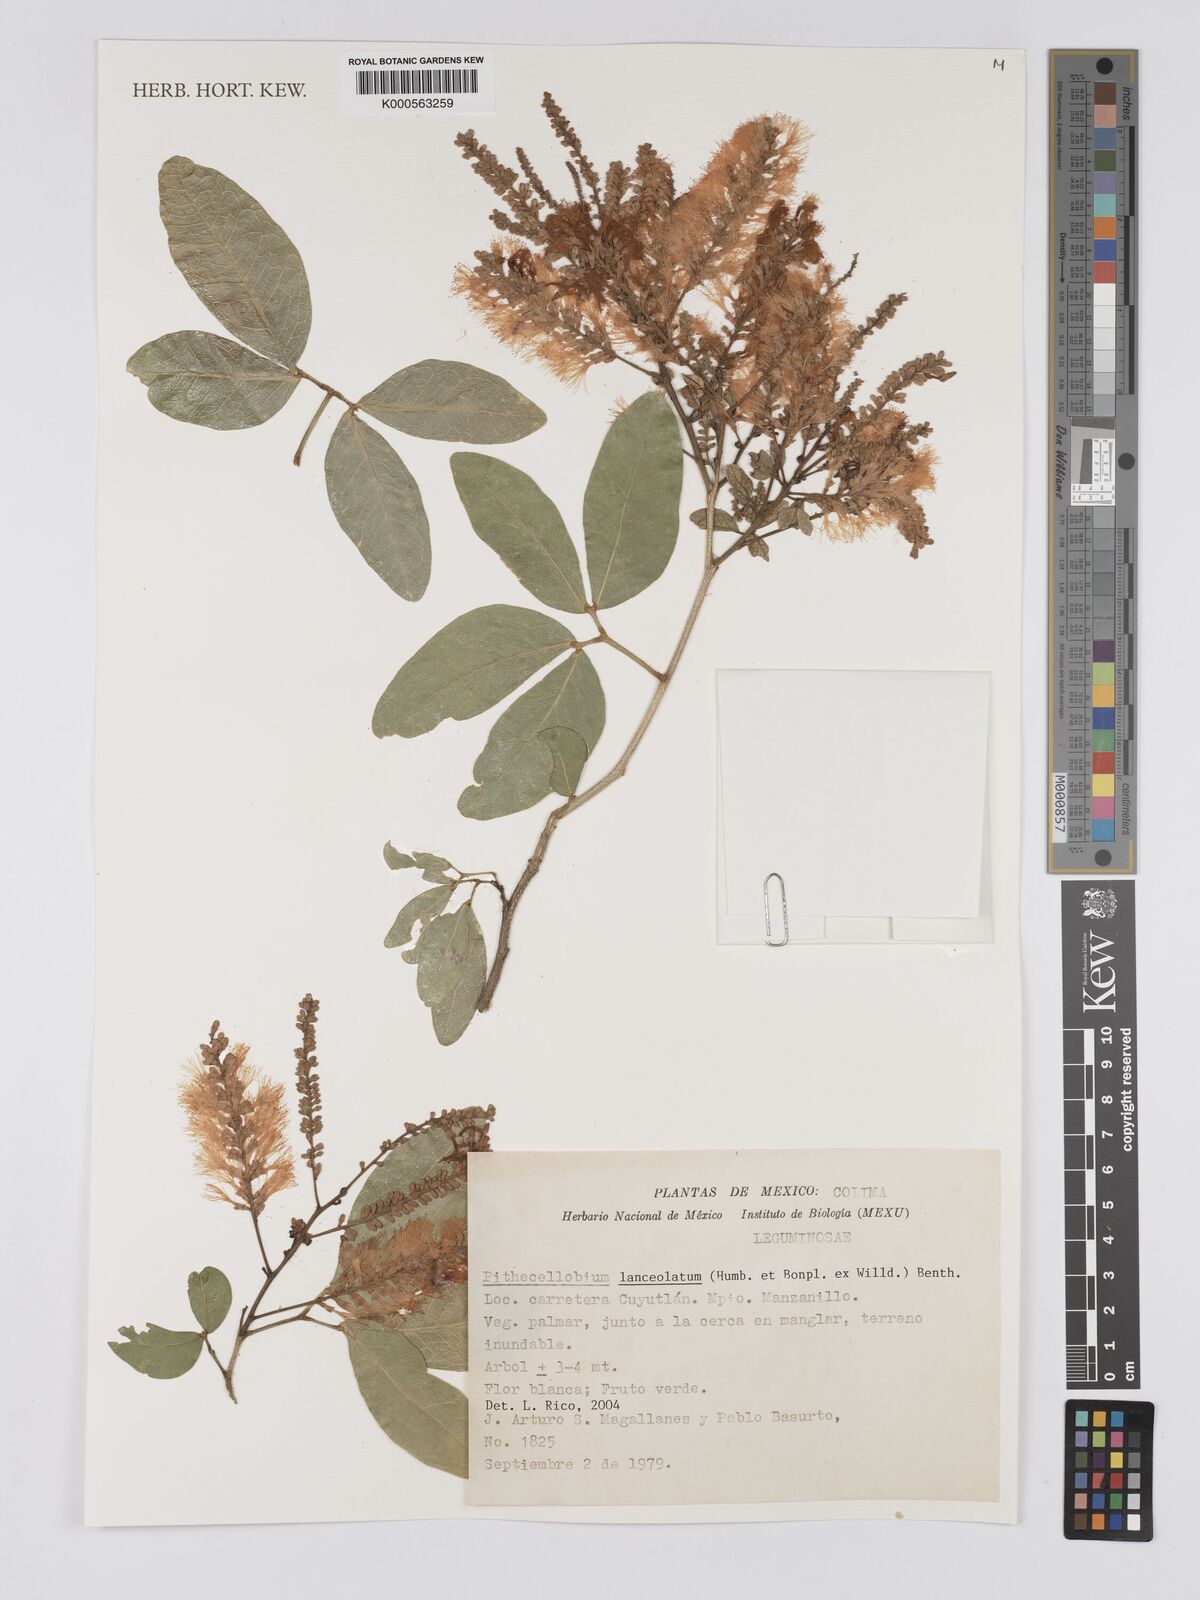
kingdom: Plantae
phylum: Tracheophyta
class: Magnoliopsida
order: Fabales
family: Fabaceae
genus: Pithecellobium
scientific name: Pithecellobium lanceolatum
